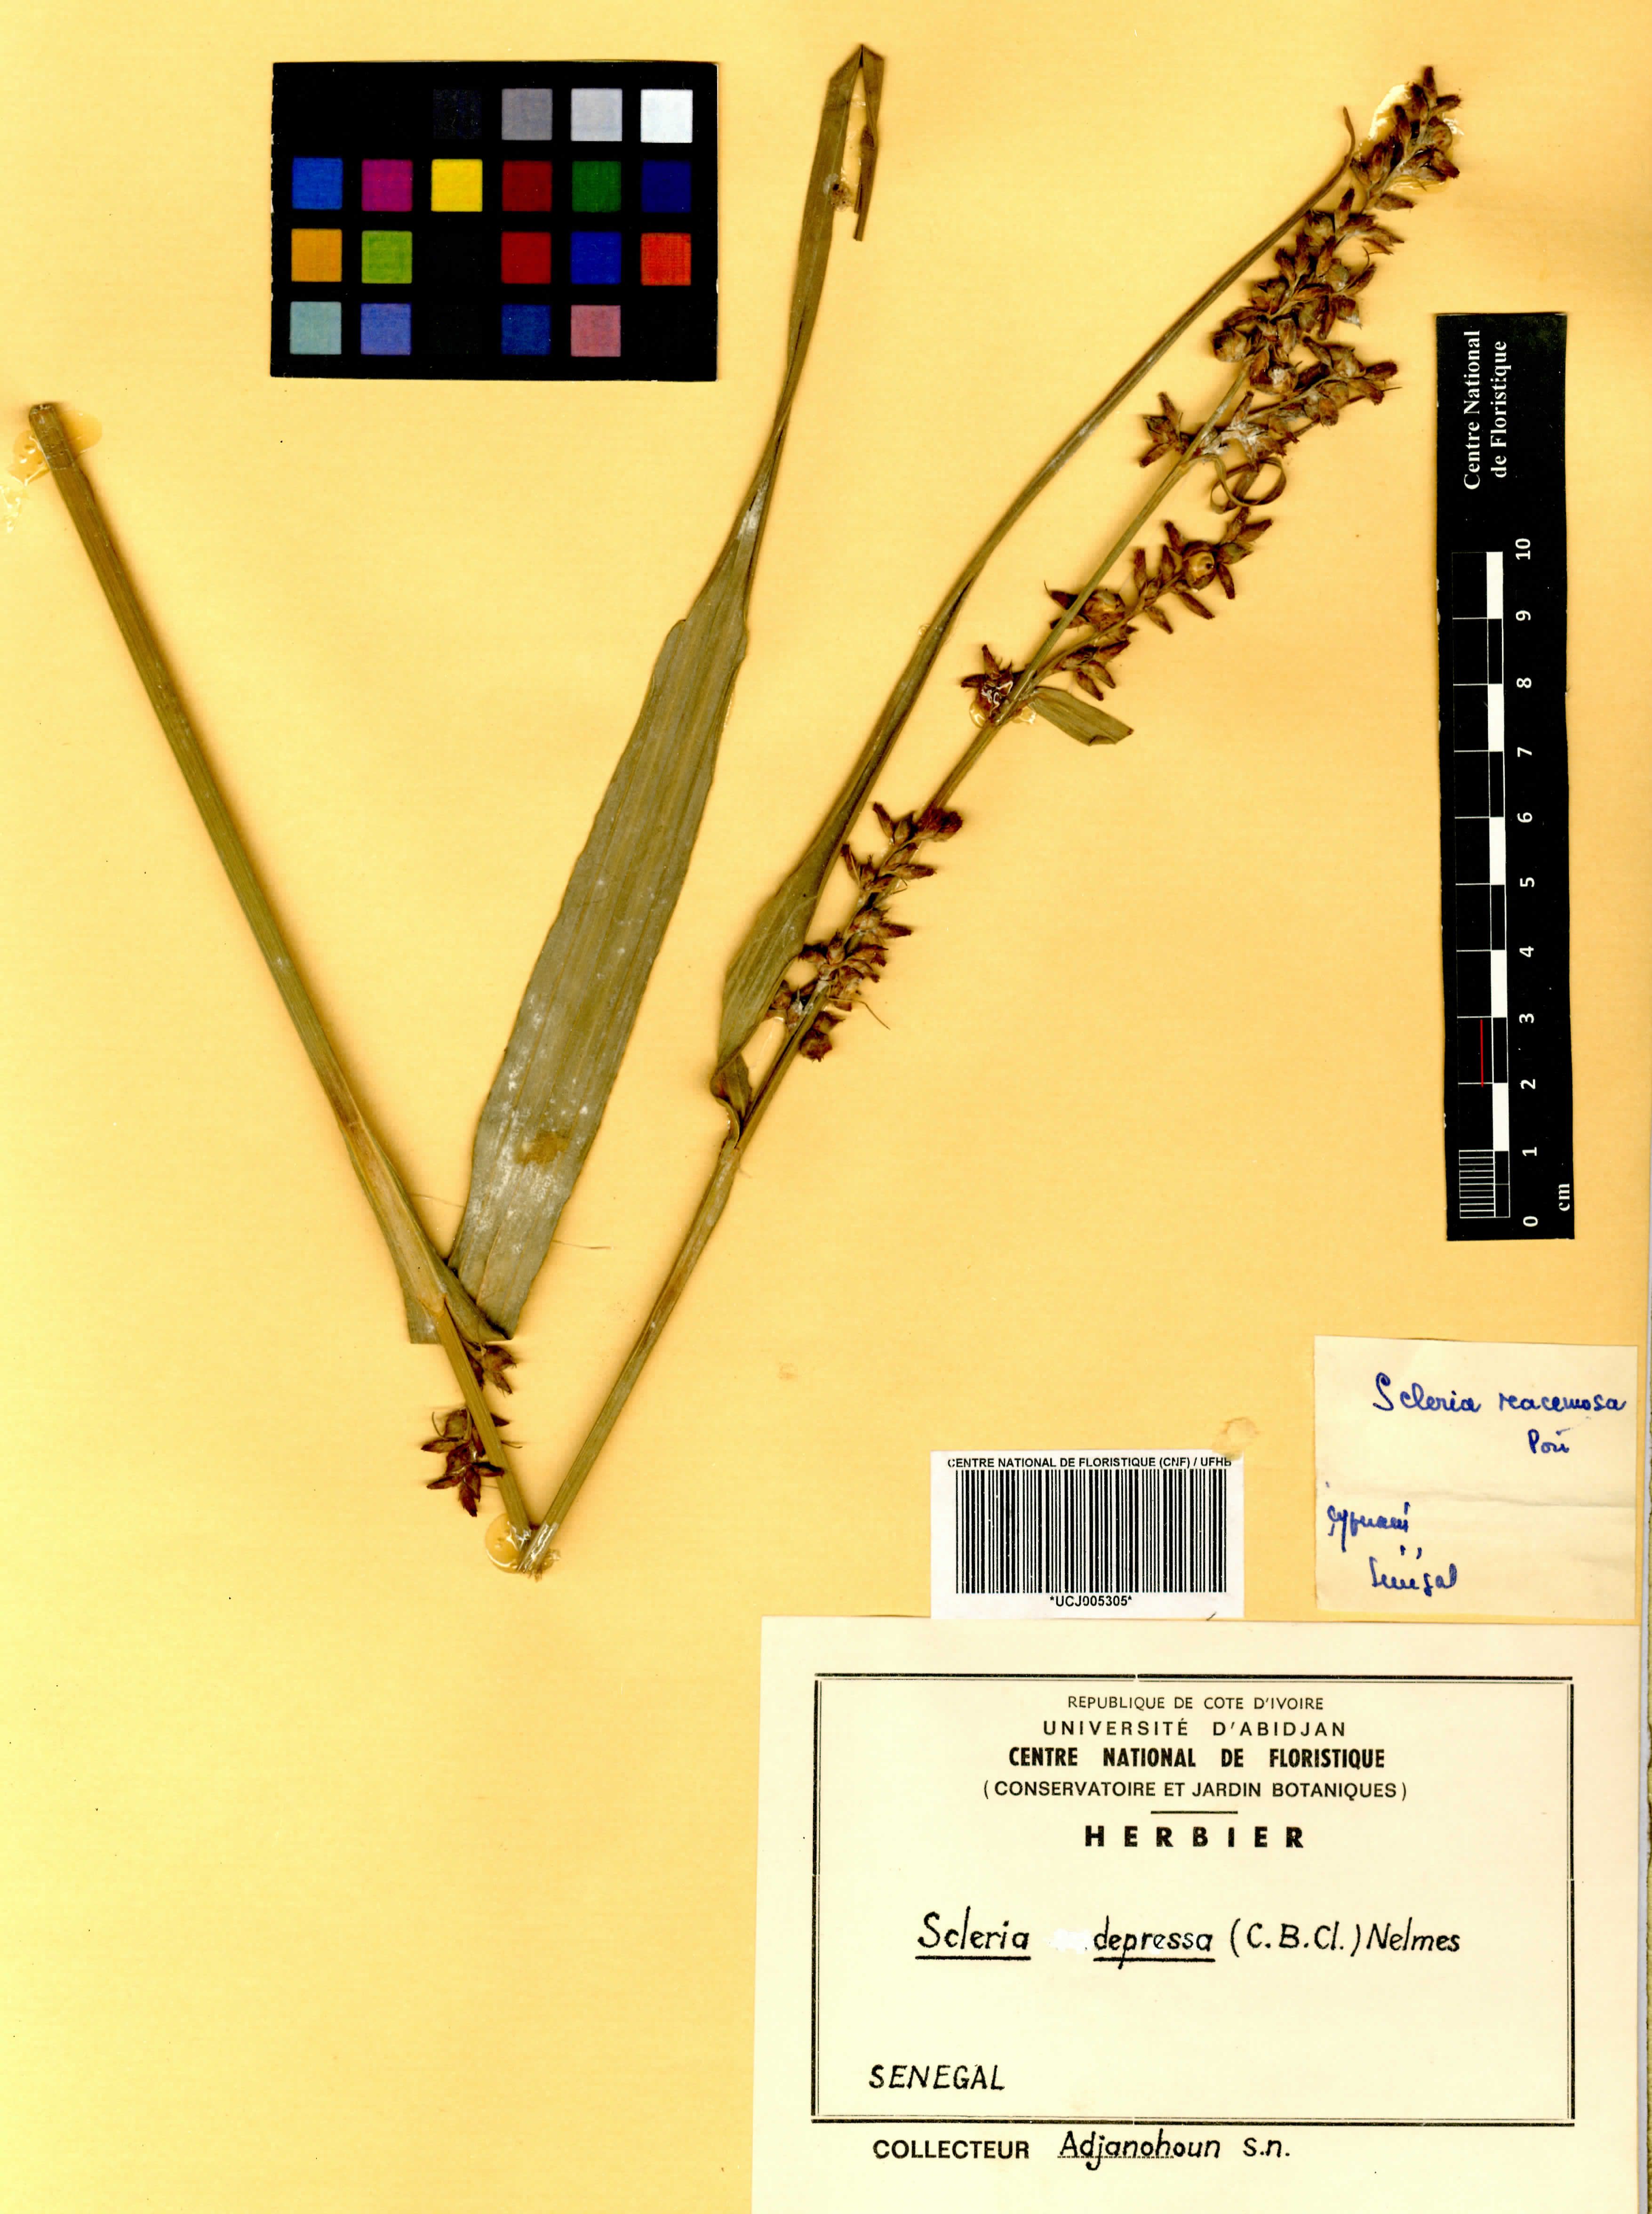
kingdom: Plantae
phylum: Tracheophyta
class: Liliopsida
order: Poales
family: Cyperaceae
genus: Scleria
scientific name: Scleria depressa
